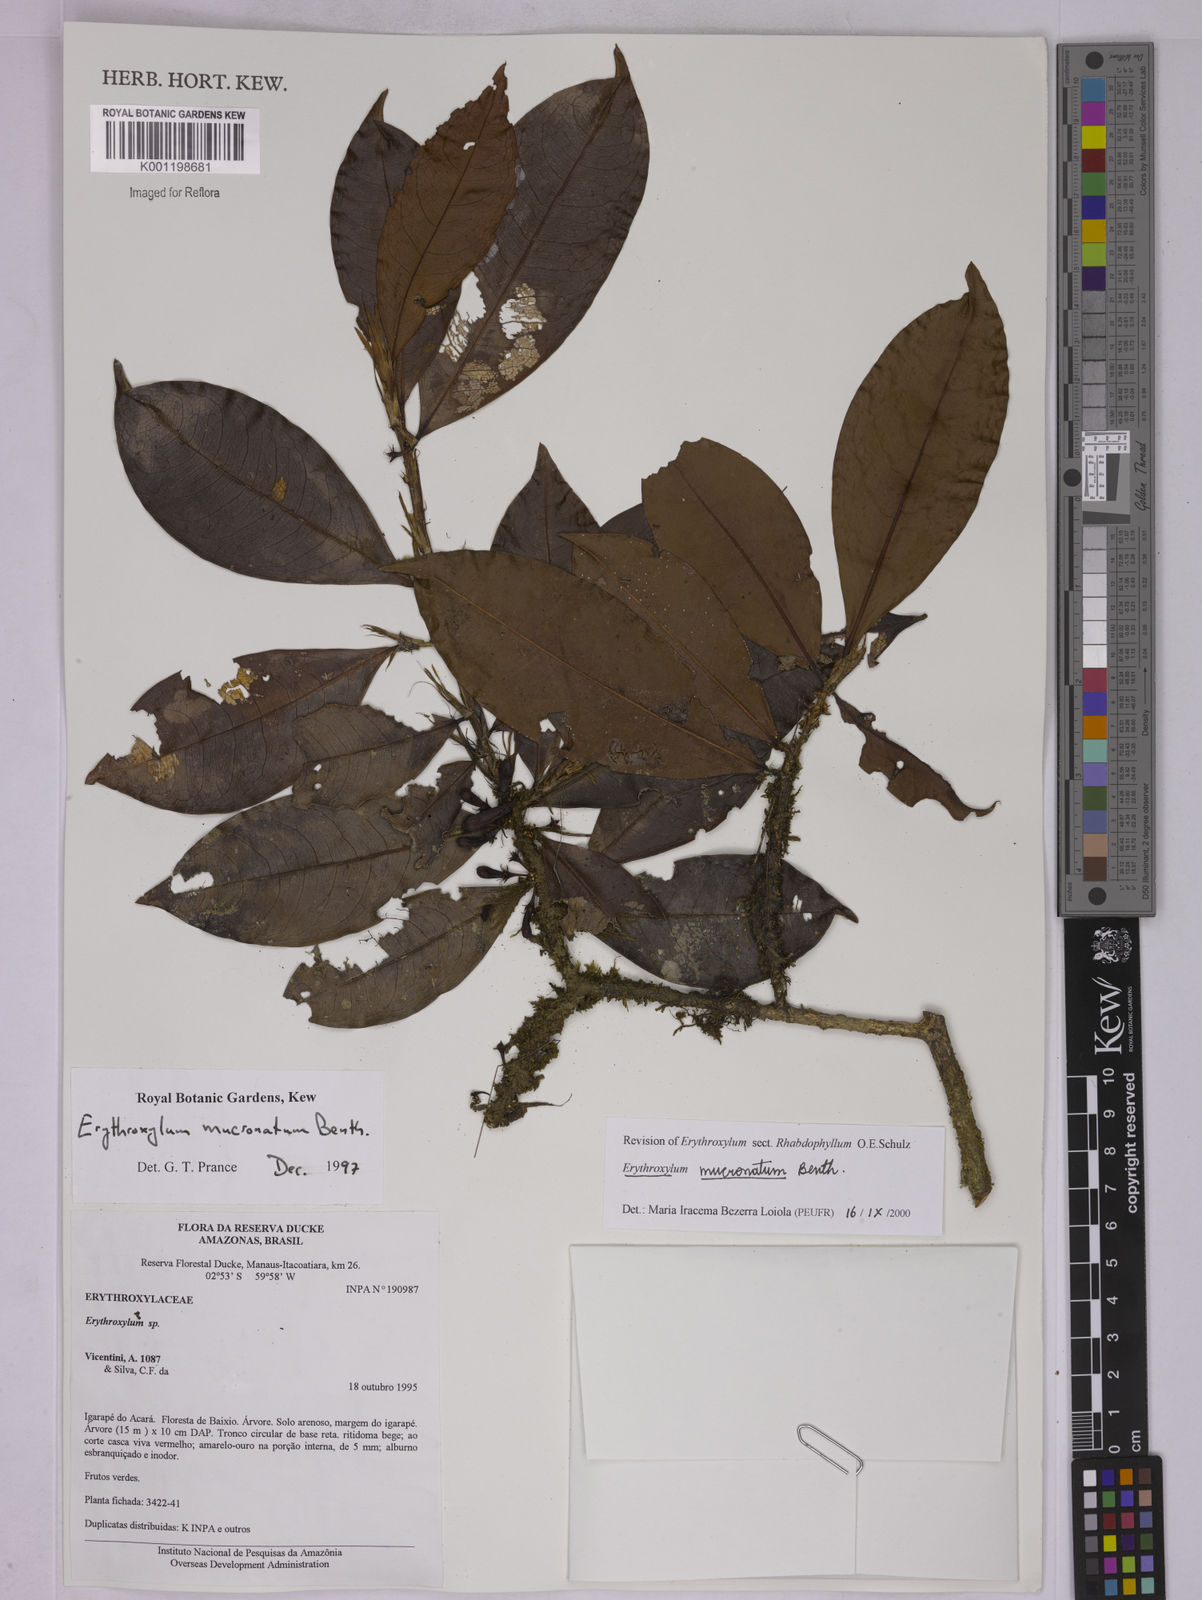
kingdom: Plantae
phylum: Tracheophyta
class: Magnoliopsida
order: Malpighiales
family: Erythroxylaceae
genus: Erythroxylum
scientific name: Erythroxylum mucronatum
